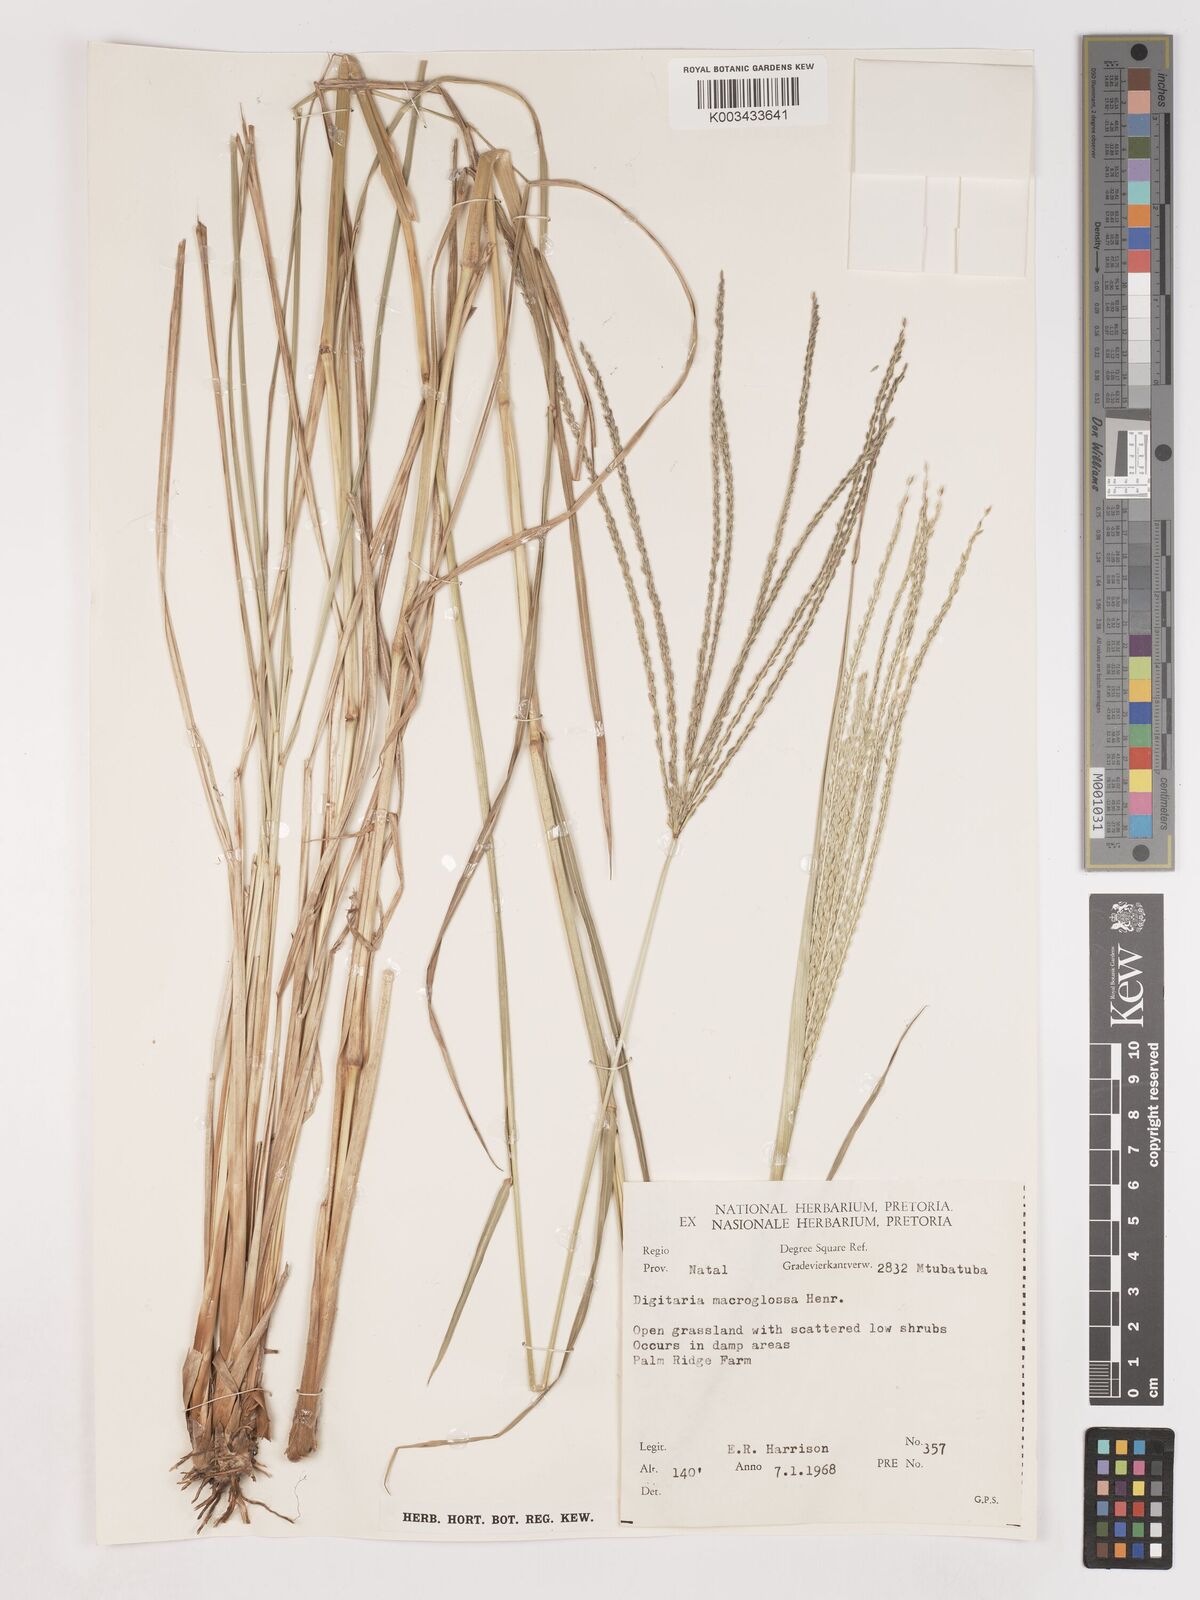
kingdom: Plantae
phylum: Tracheophyta
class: Liliopsida
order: Poales
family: Poaceae
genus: Digitaria
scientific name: Digitaria natalensis
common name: Coast finger grass
